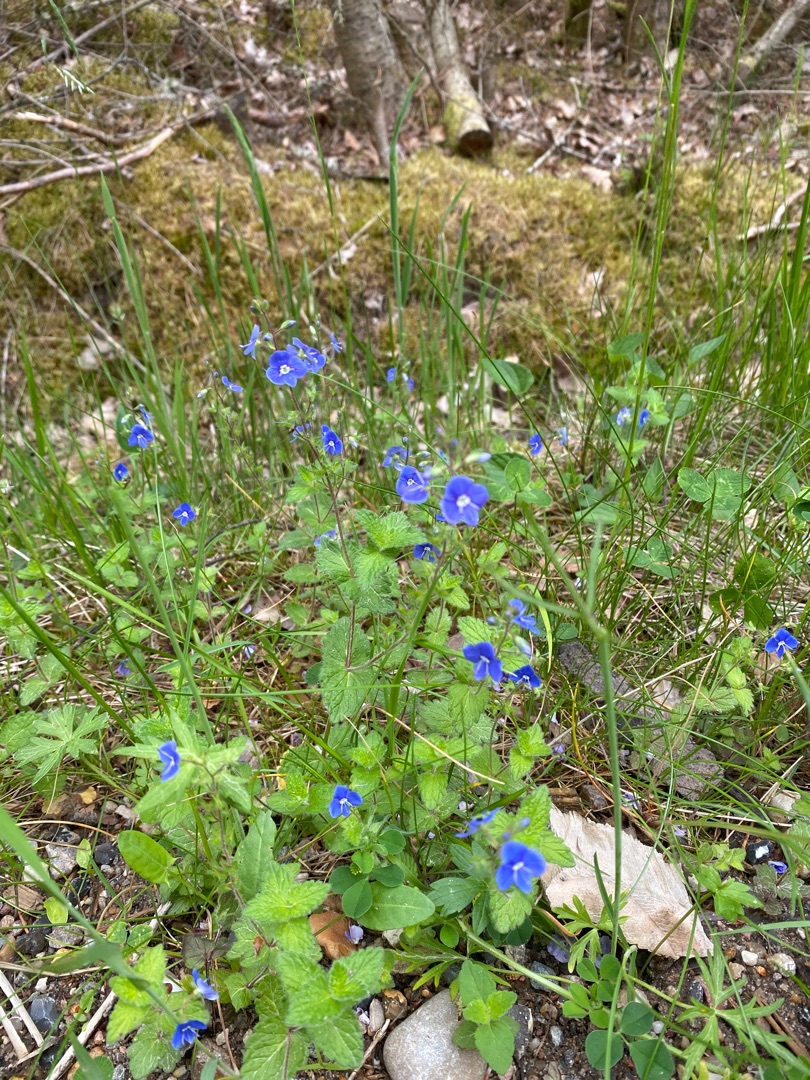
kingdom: Plantae
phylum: Tracheophyta
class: Magnoliopsida
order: Lamiales
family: Plantaginaceae
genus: Veronica
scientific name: Veronica chamaedrys
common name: Tveskægget ærenpris
